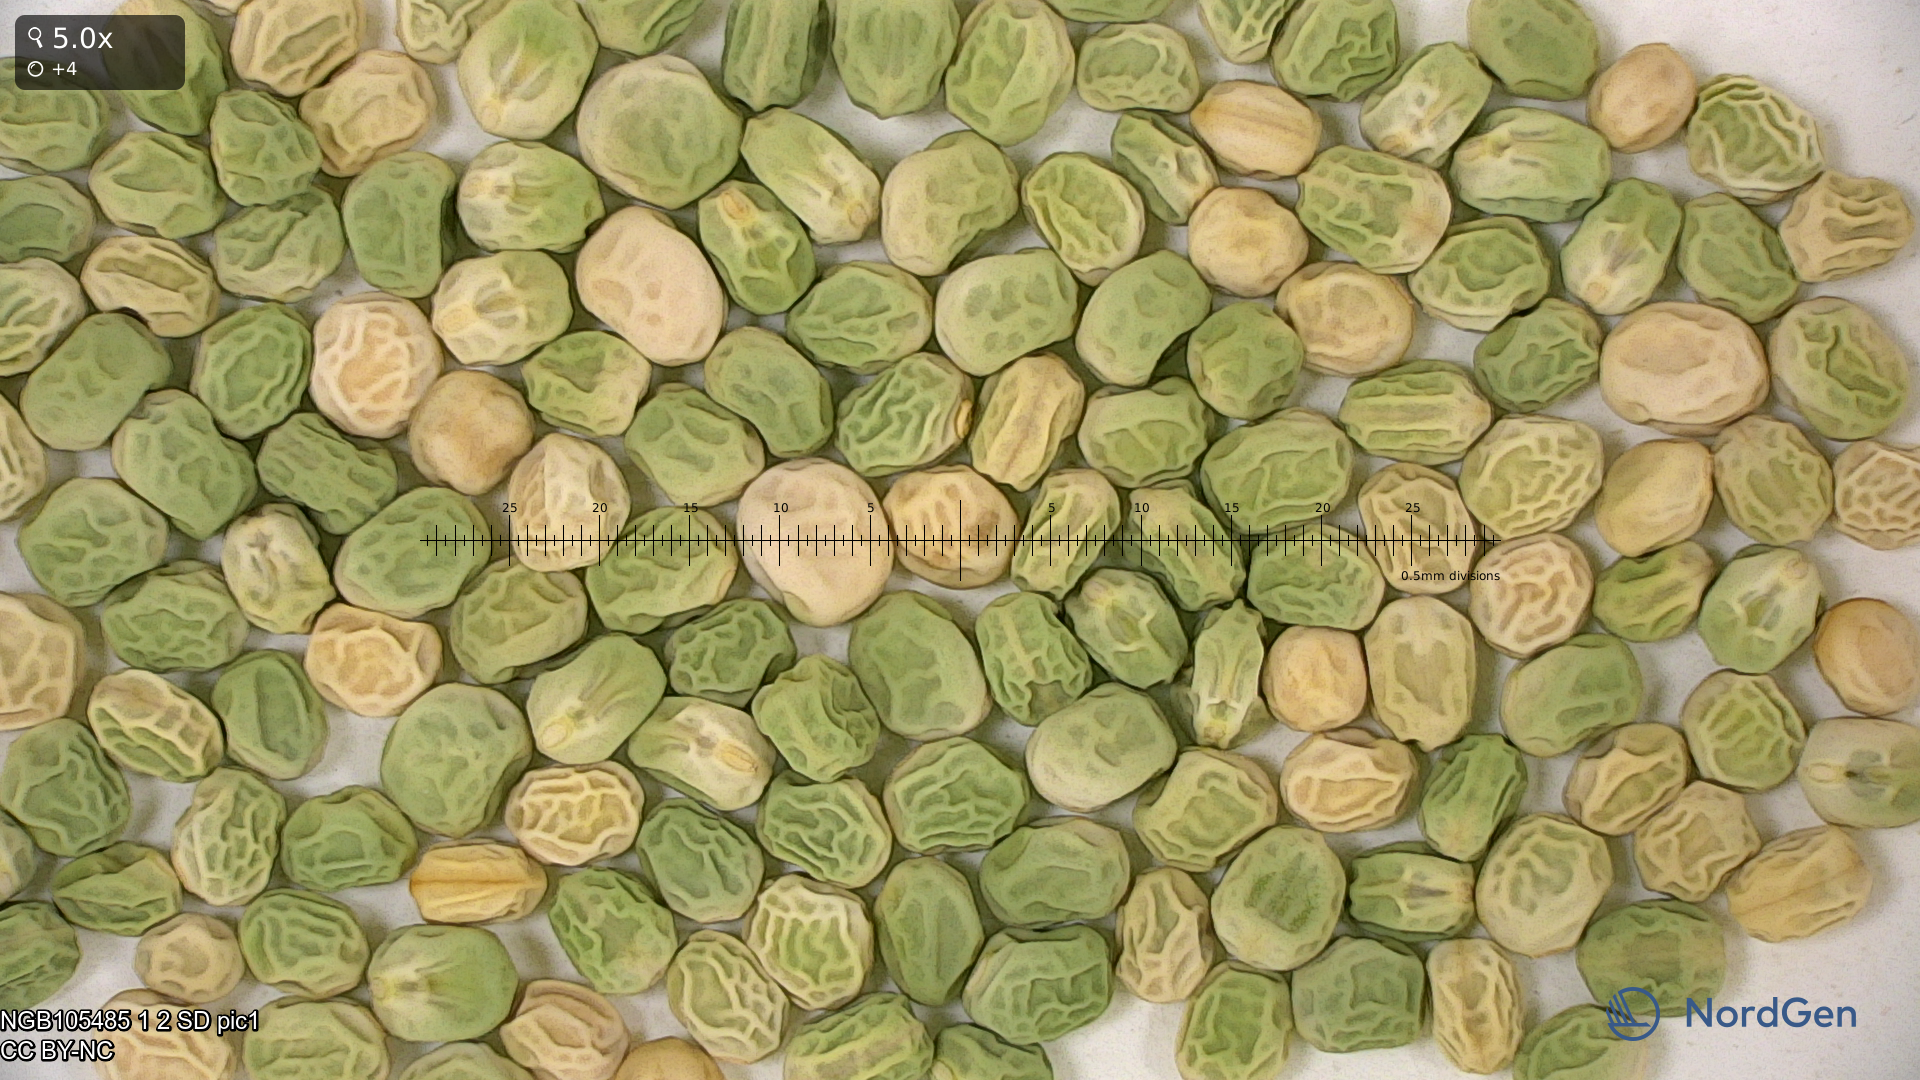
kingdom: Plantae
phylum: Tracheophyta
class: Magnoliopsida
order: Fabales
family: Fabaceae
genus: Lathyrus
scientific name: Lathyrus oleraceus
